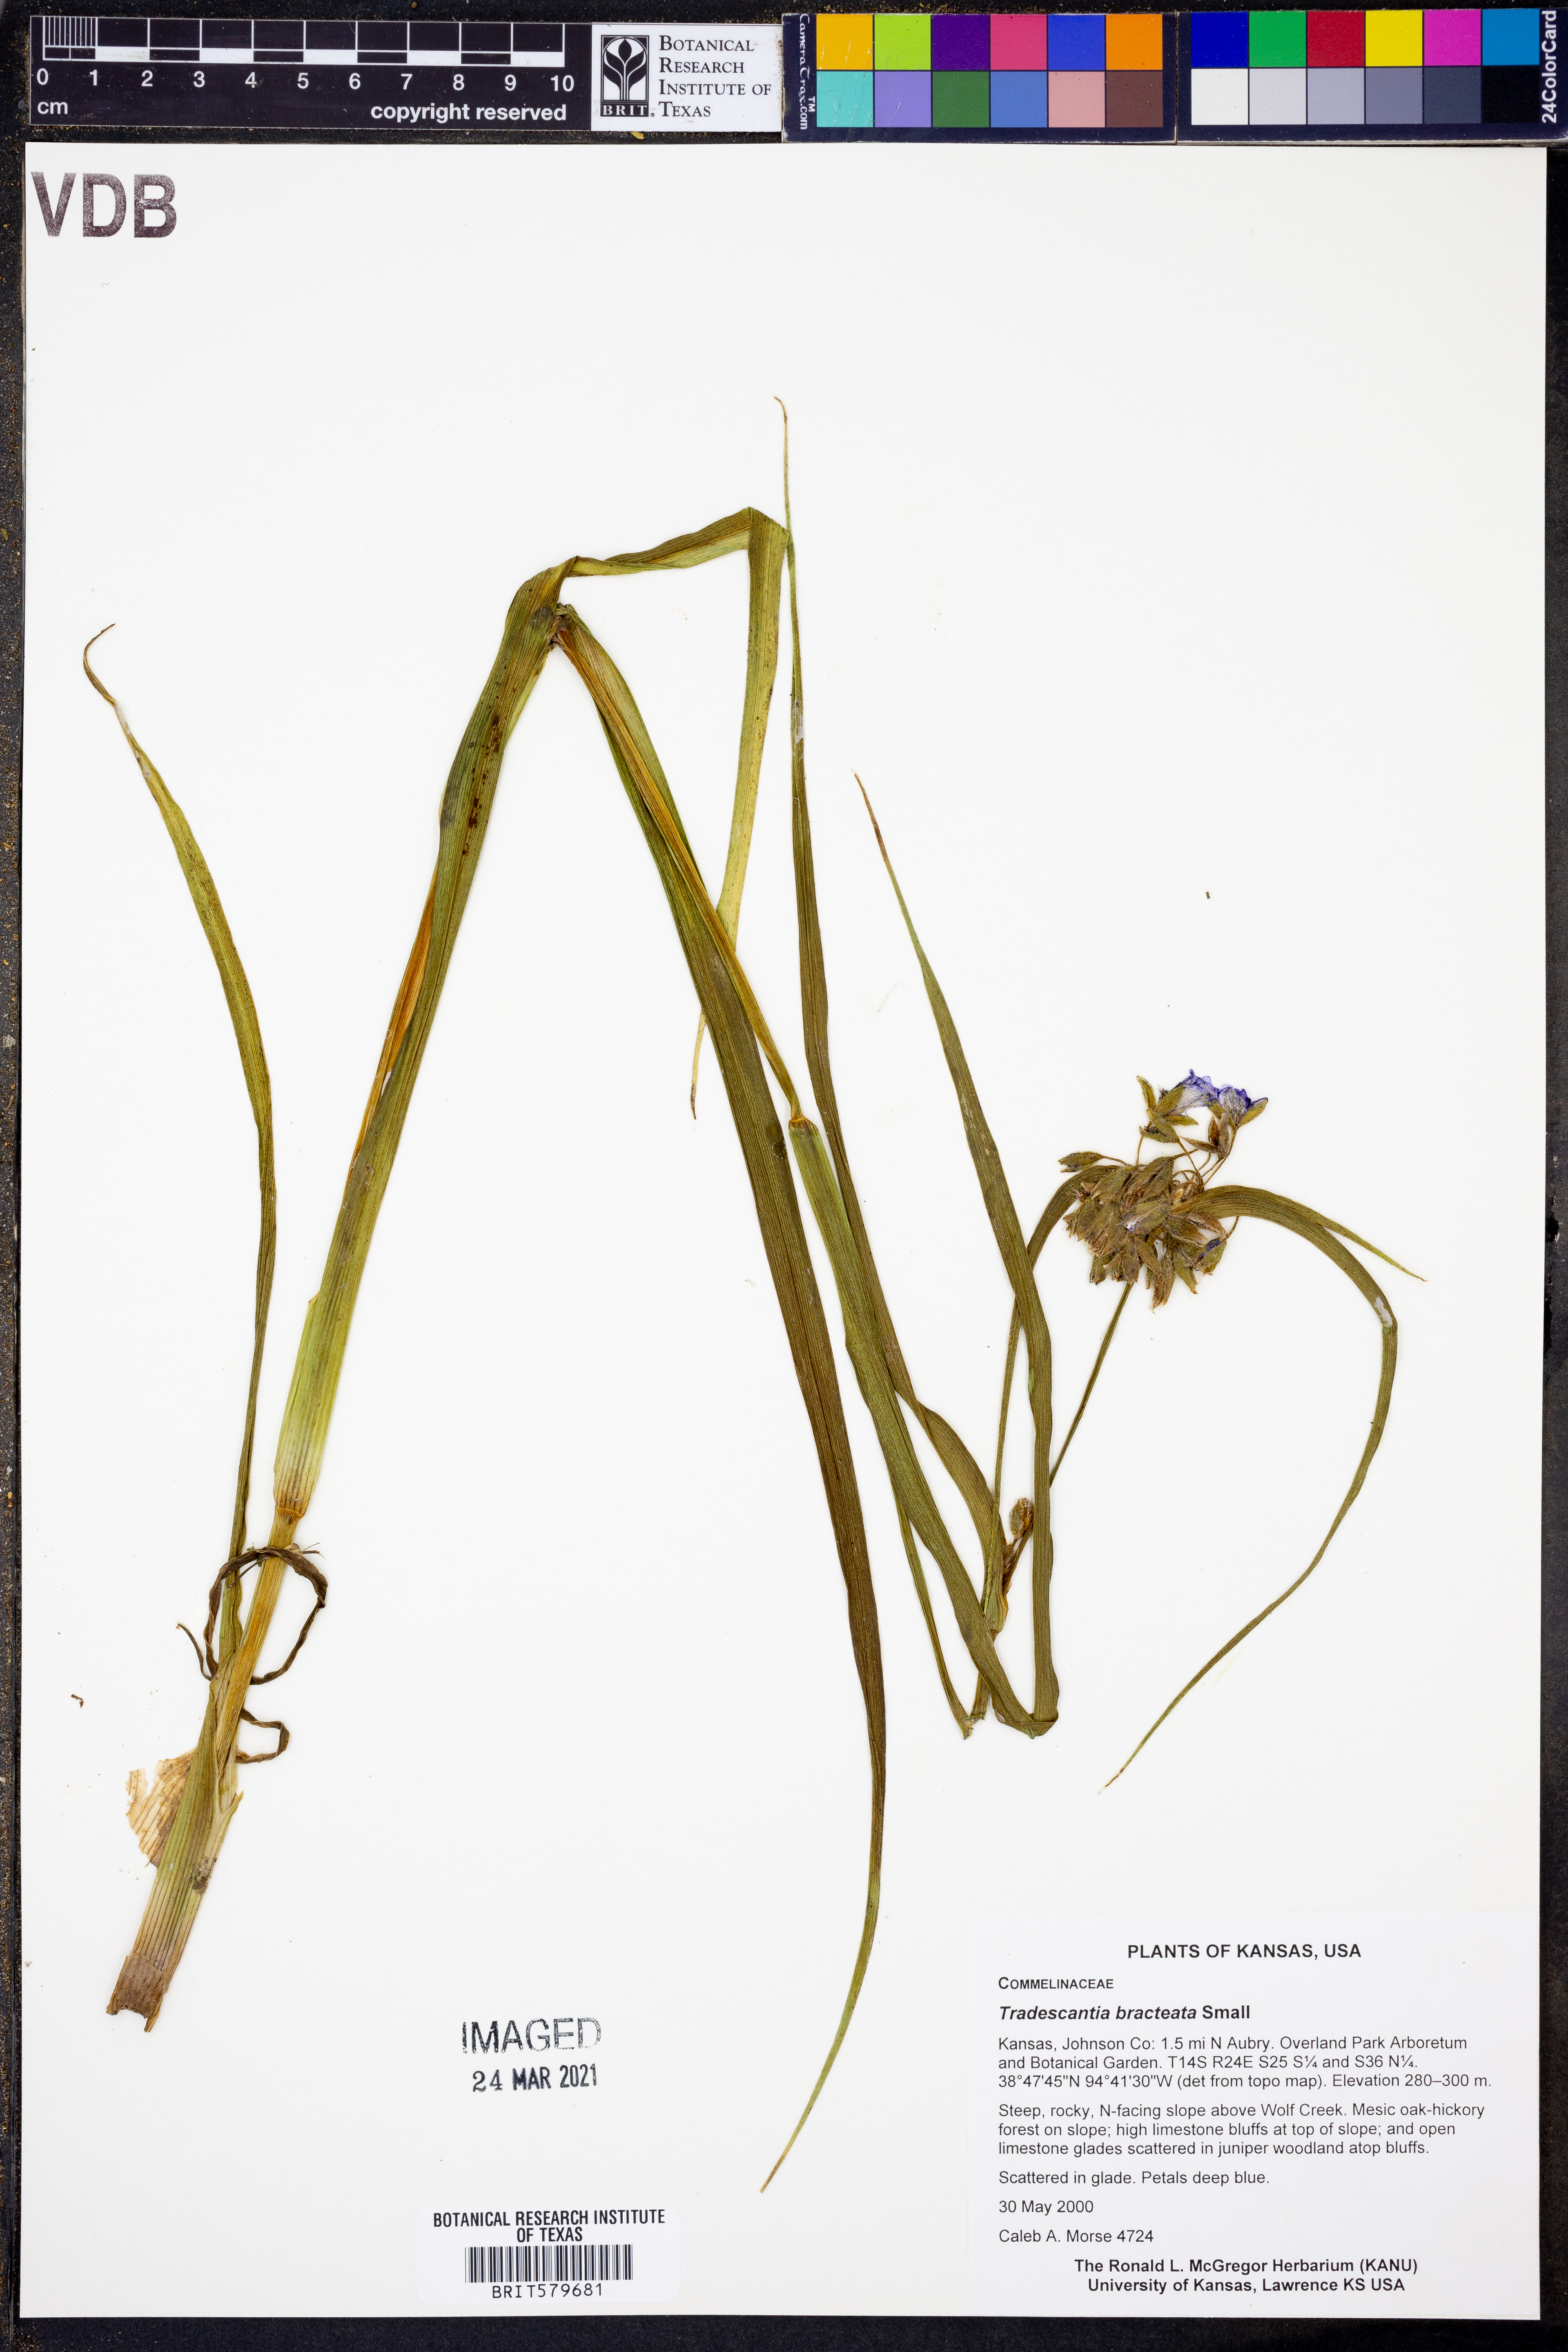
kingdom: Plantae
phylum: Tracheophyta
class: Liliopsida
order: Commelinales
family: Commelinaceae
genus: Tradescantia
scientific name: Tradescantia bracteata
